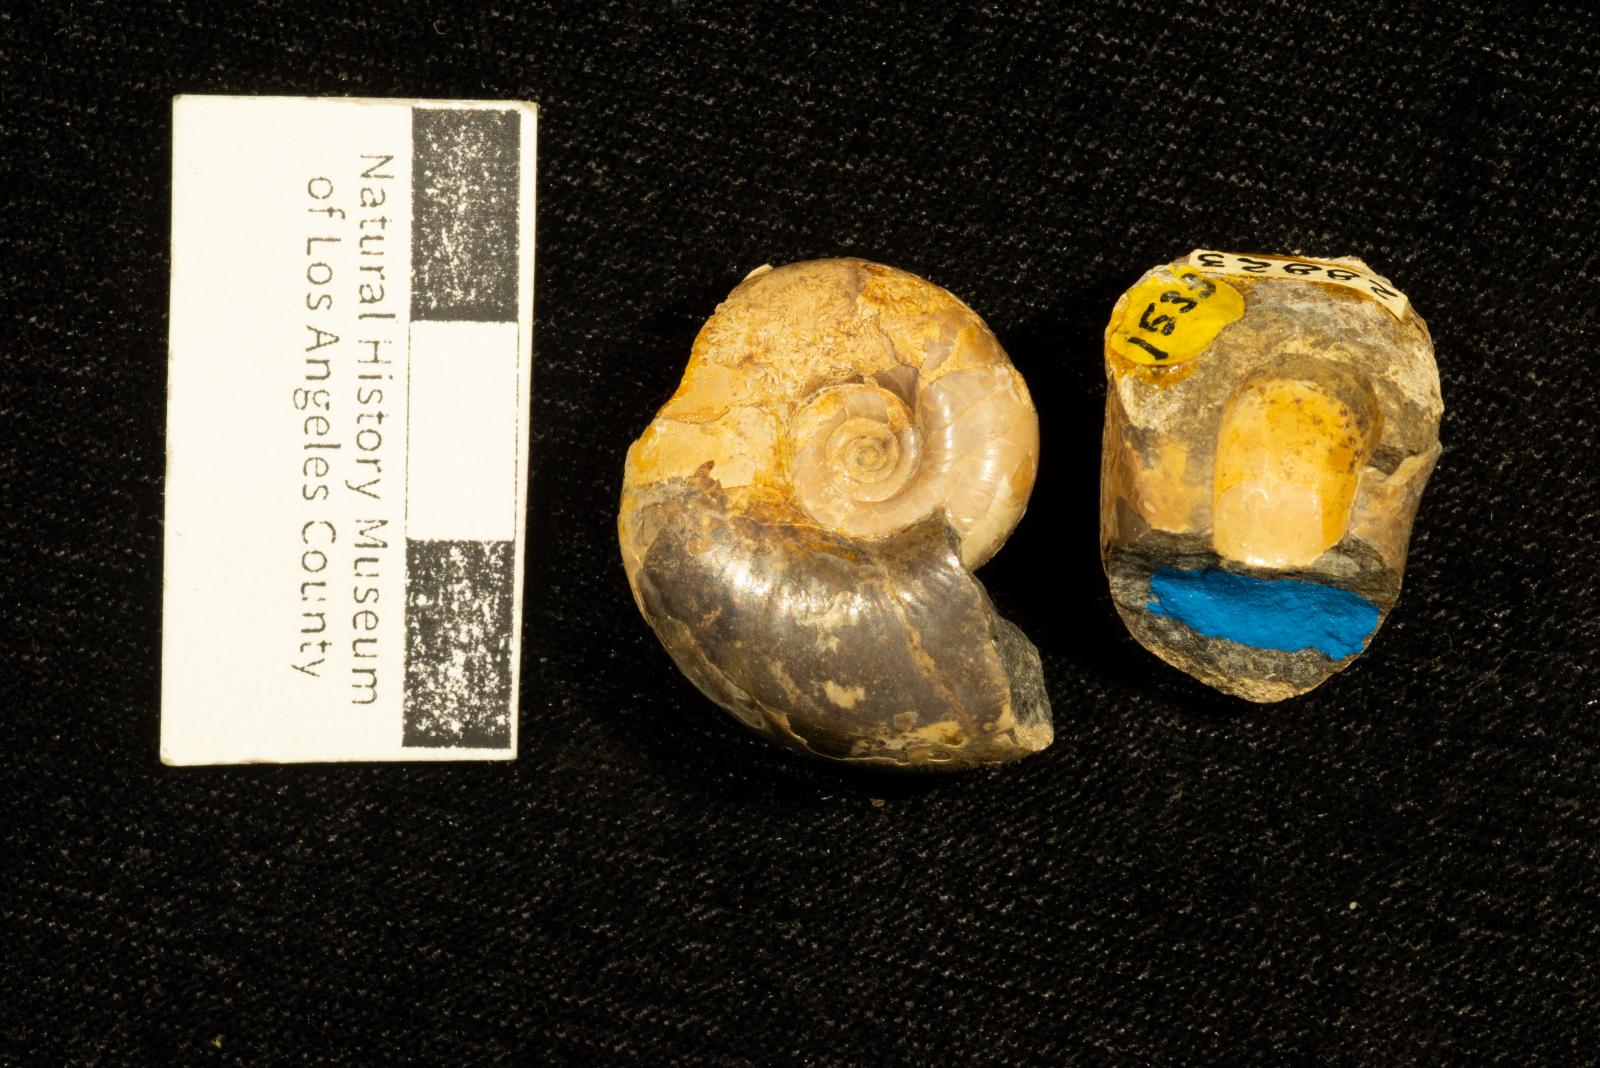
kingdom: Animalia
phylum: Mollusca
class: Cephalopoda
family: Lytoceratidae
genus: Lytoceras
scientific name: Lytoceras glabrus
